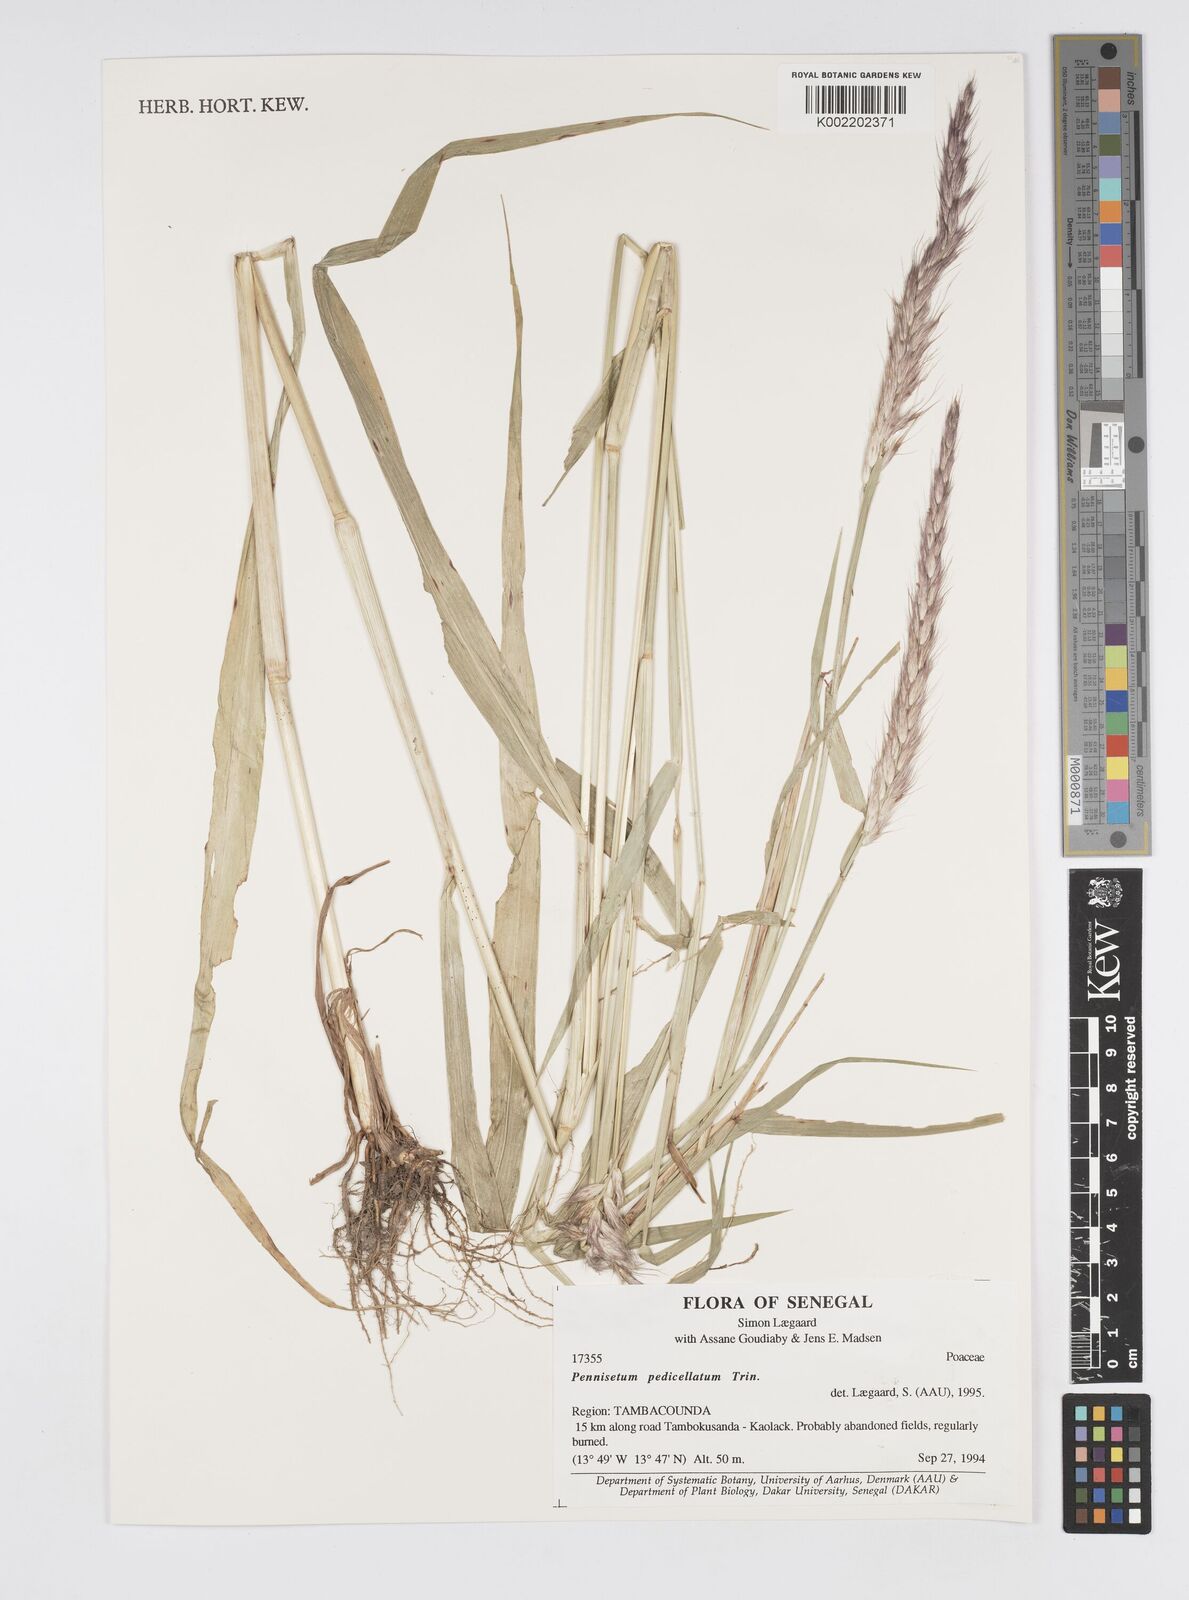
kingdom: Plantae
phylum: Tracheophyta
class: Liliopsida
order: Poales
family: Poaceae
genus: Cenchrus
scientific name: Cenchrus pedicellatus
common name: Hairy fountain grass
